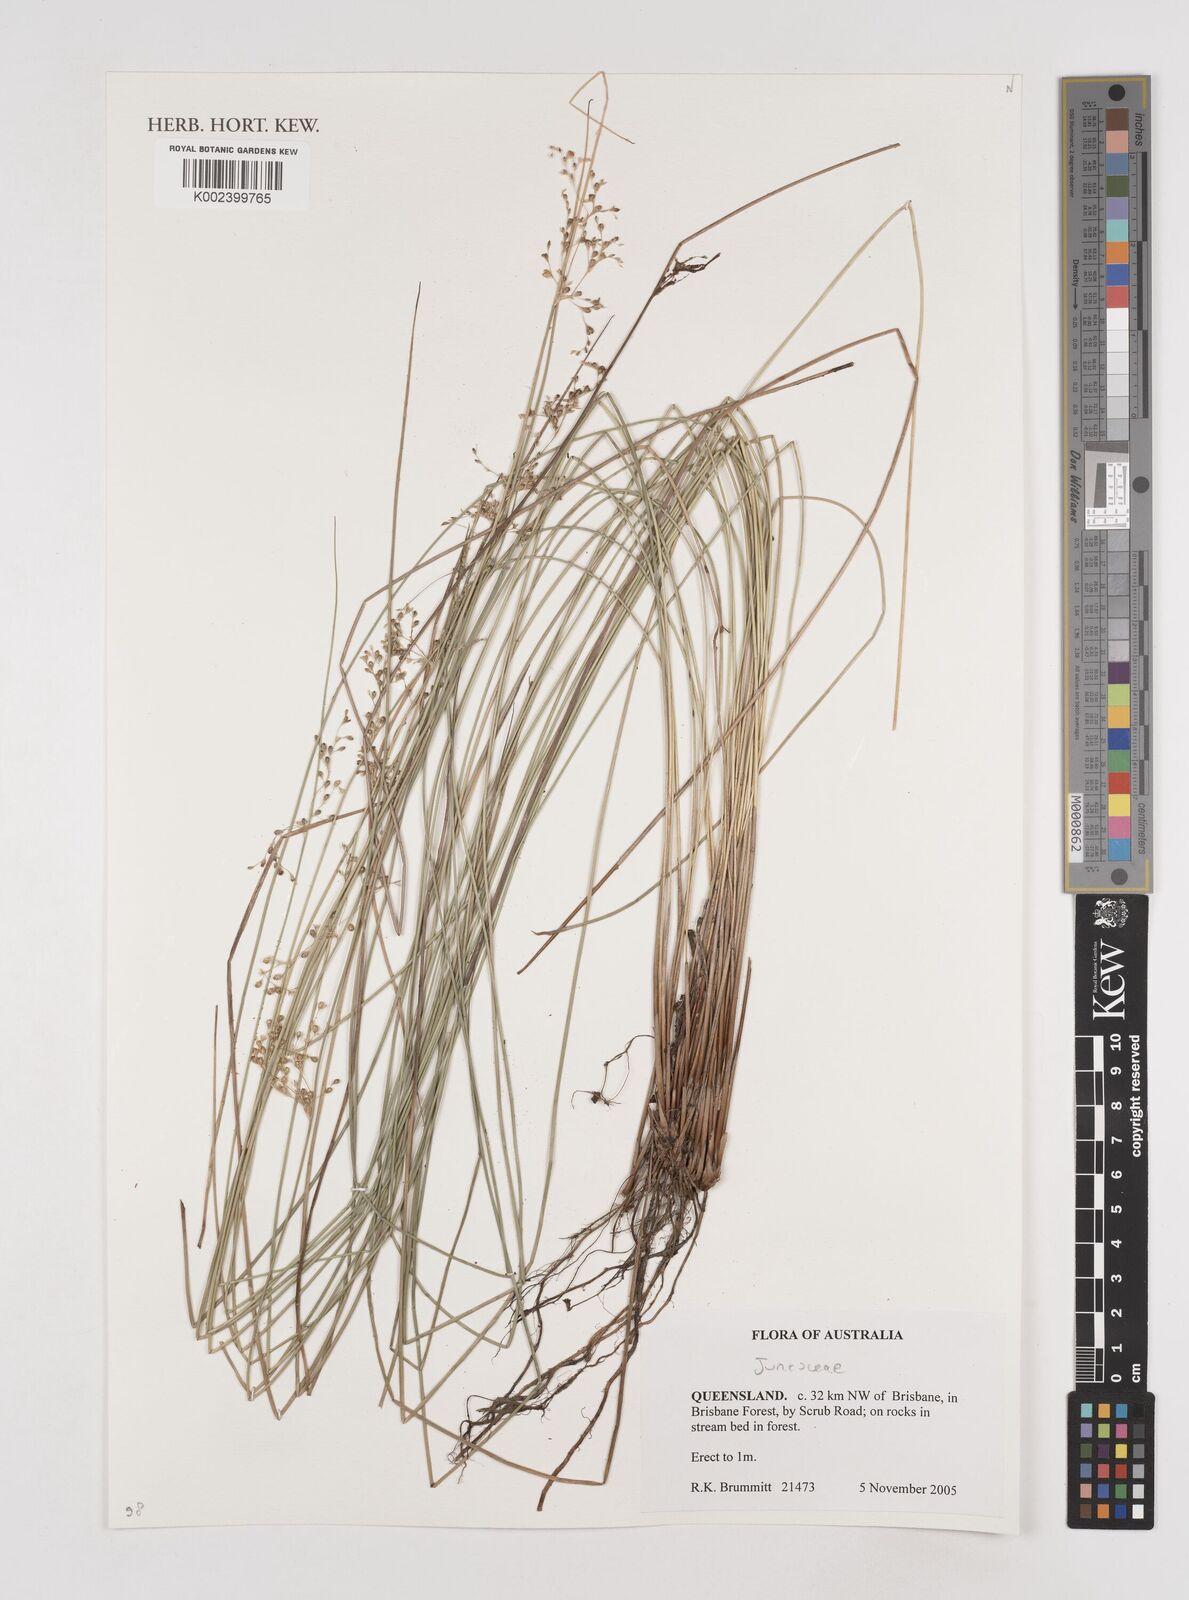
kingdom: Plantae
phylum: Tracheophyta
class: Liliopsida
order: Poales
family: Juncaceae
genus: Juncus
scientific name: Juncus
